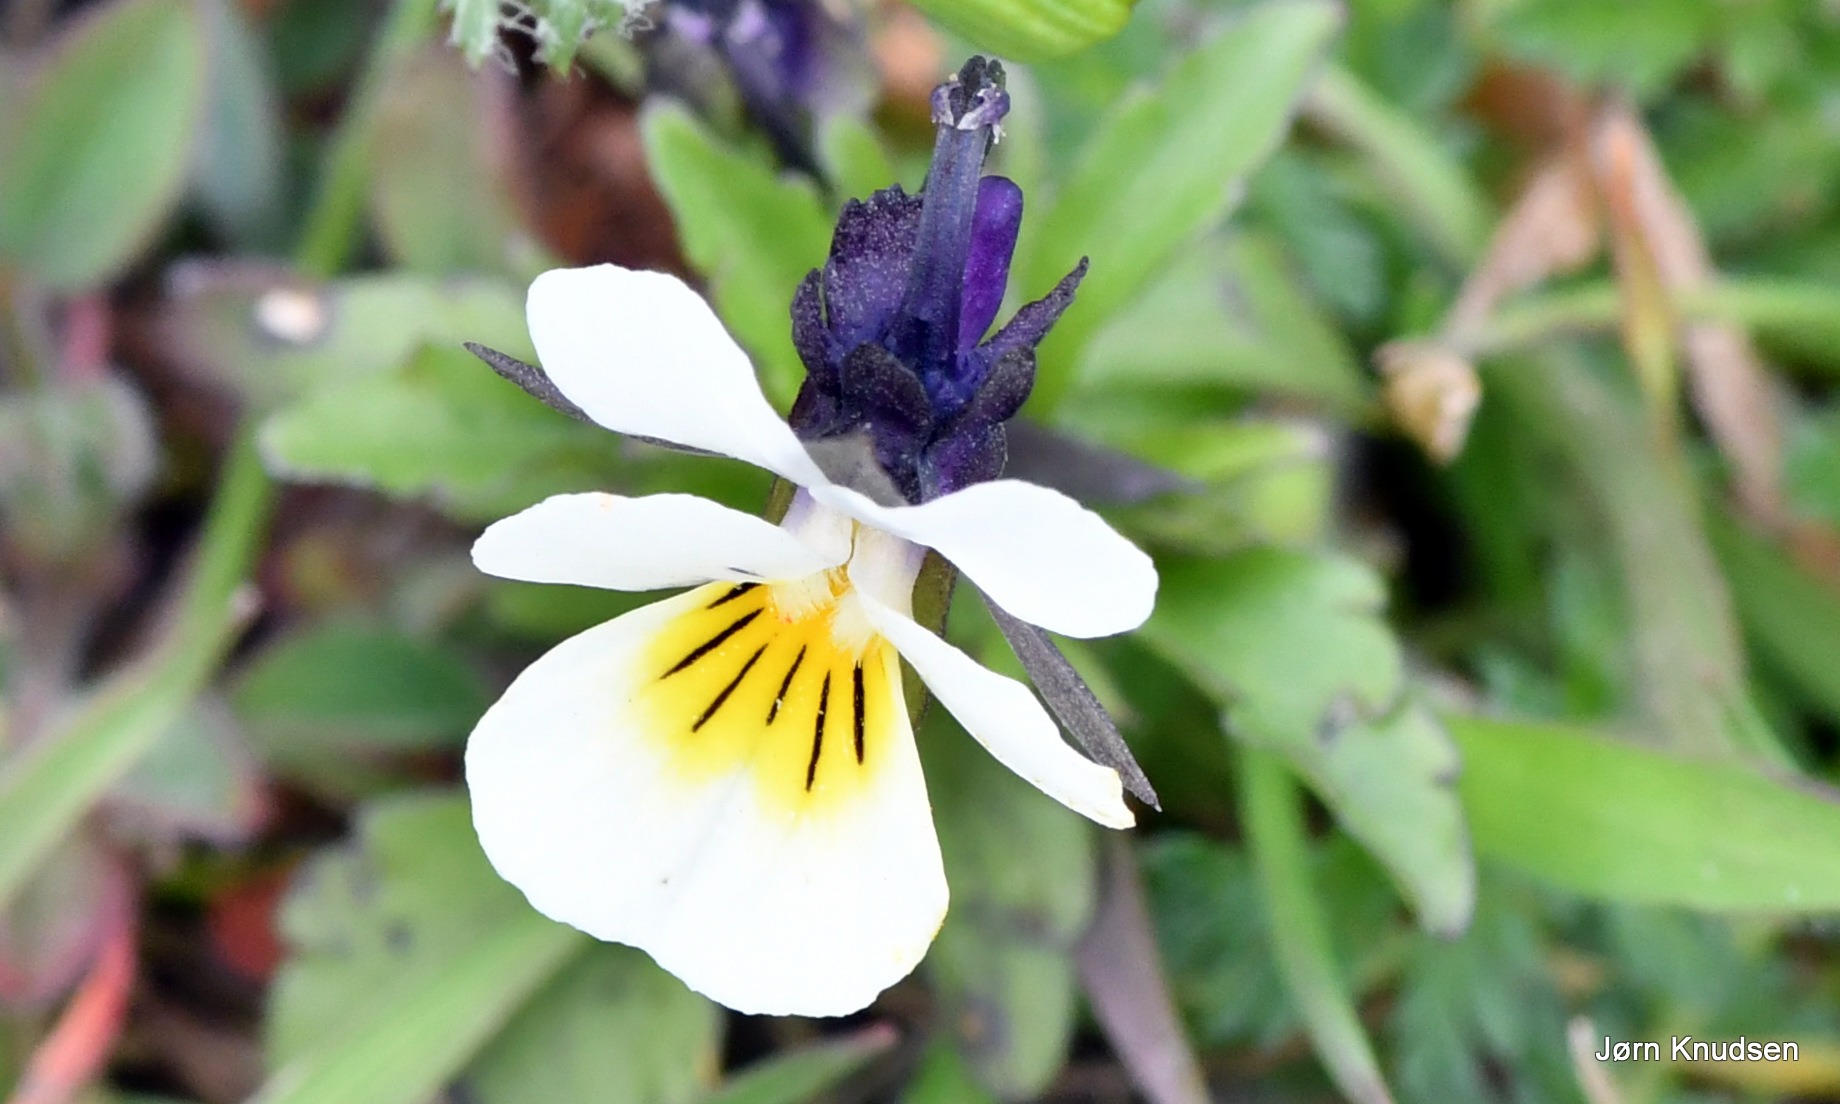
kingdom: Plantae
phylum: Tracheophyta
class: Magnoliopsida
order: Malpighiales
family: Violaceae
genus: Viola
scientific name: Viola arvensis
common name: Ager-stedmoderblomst
